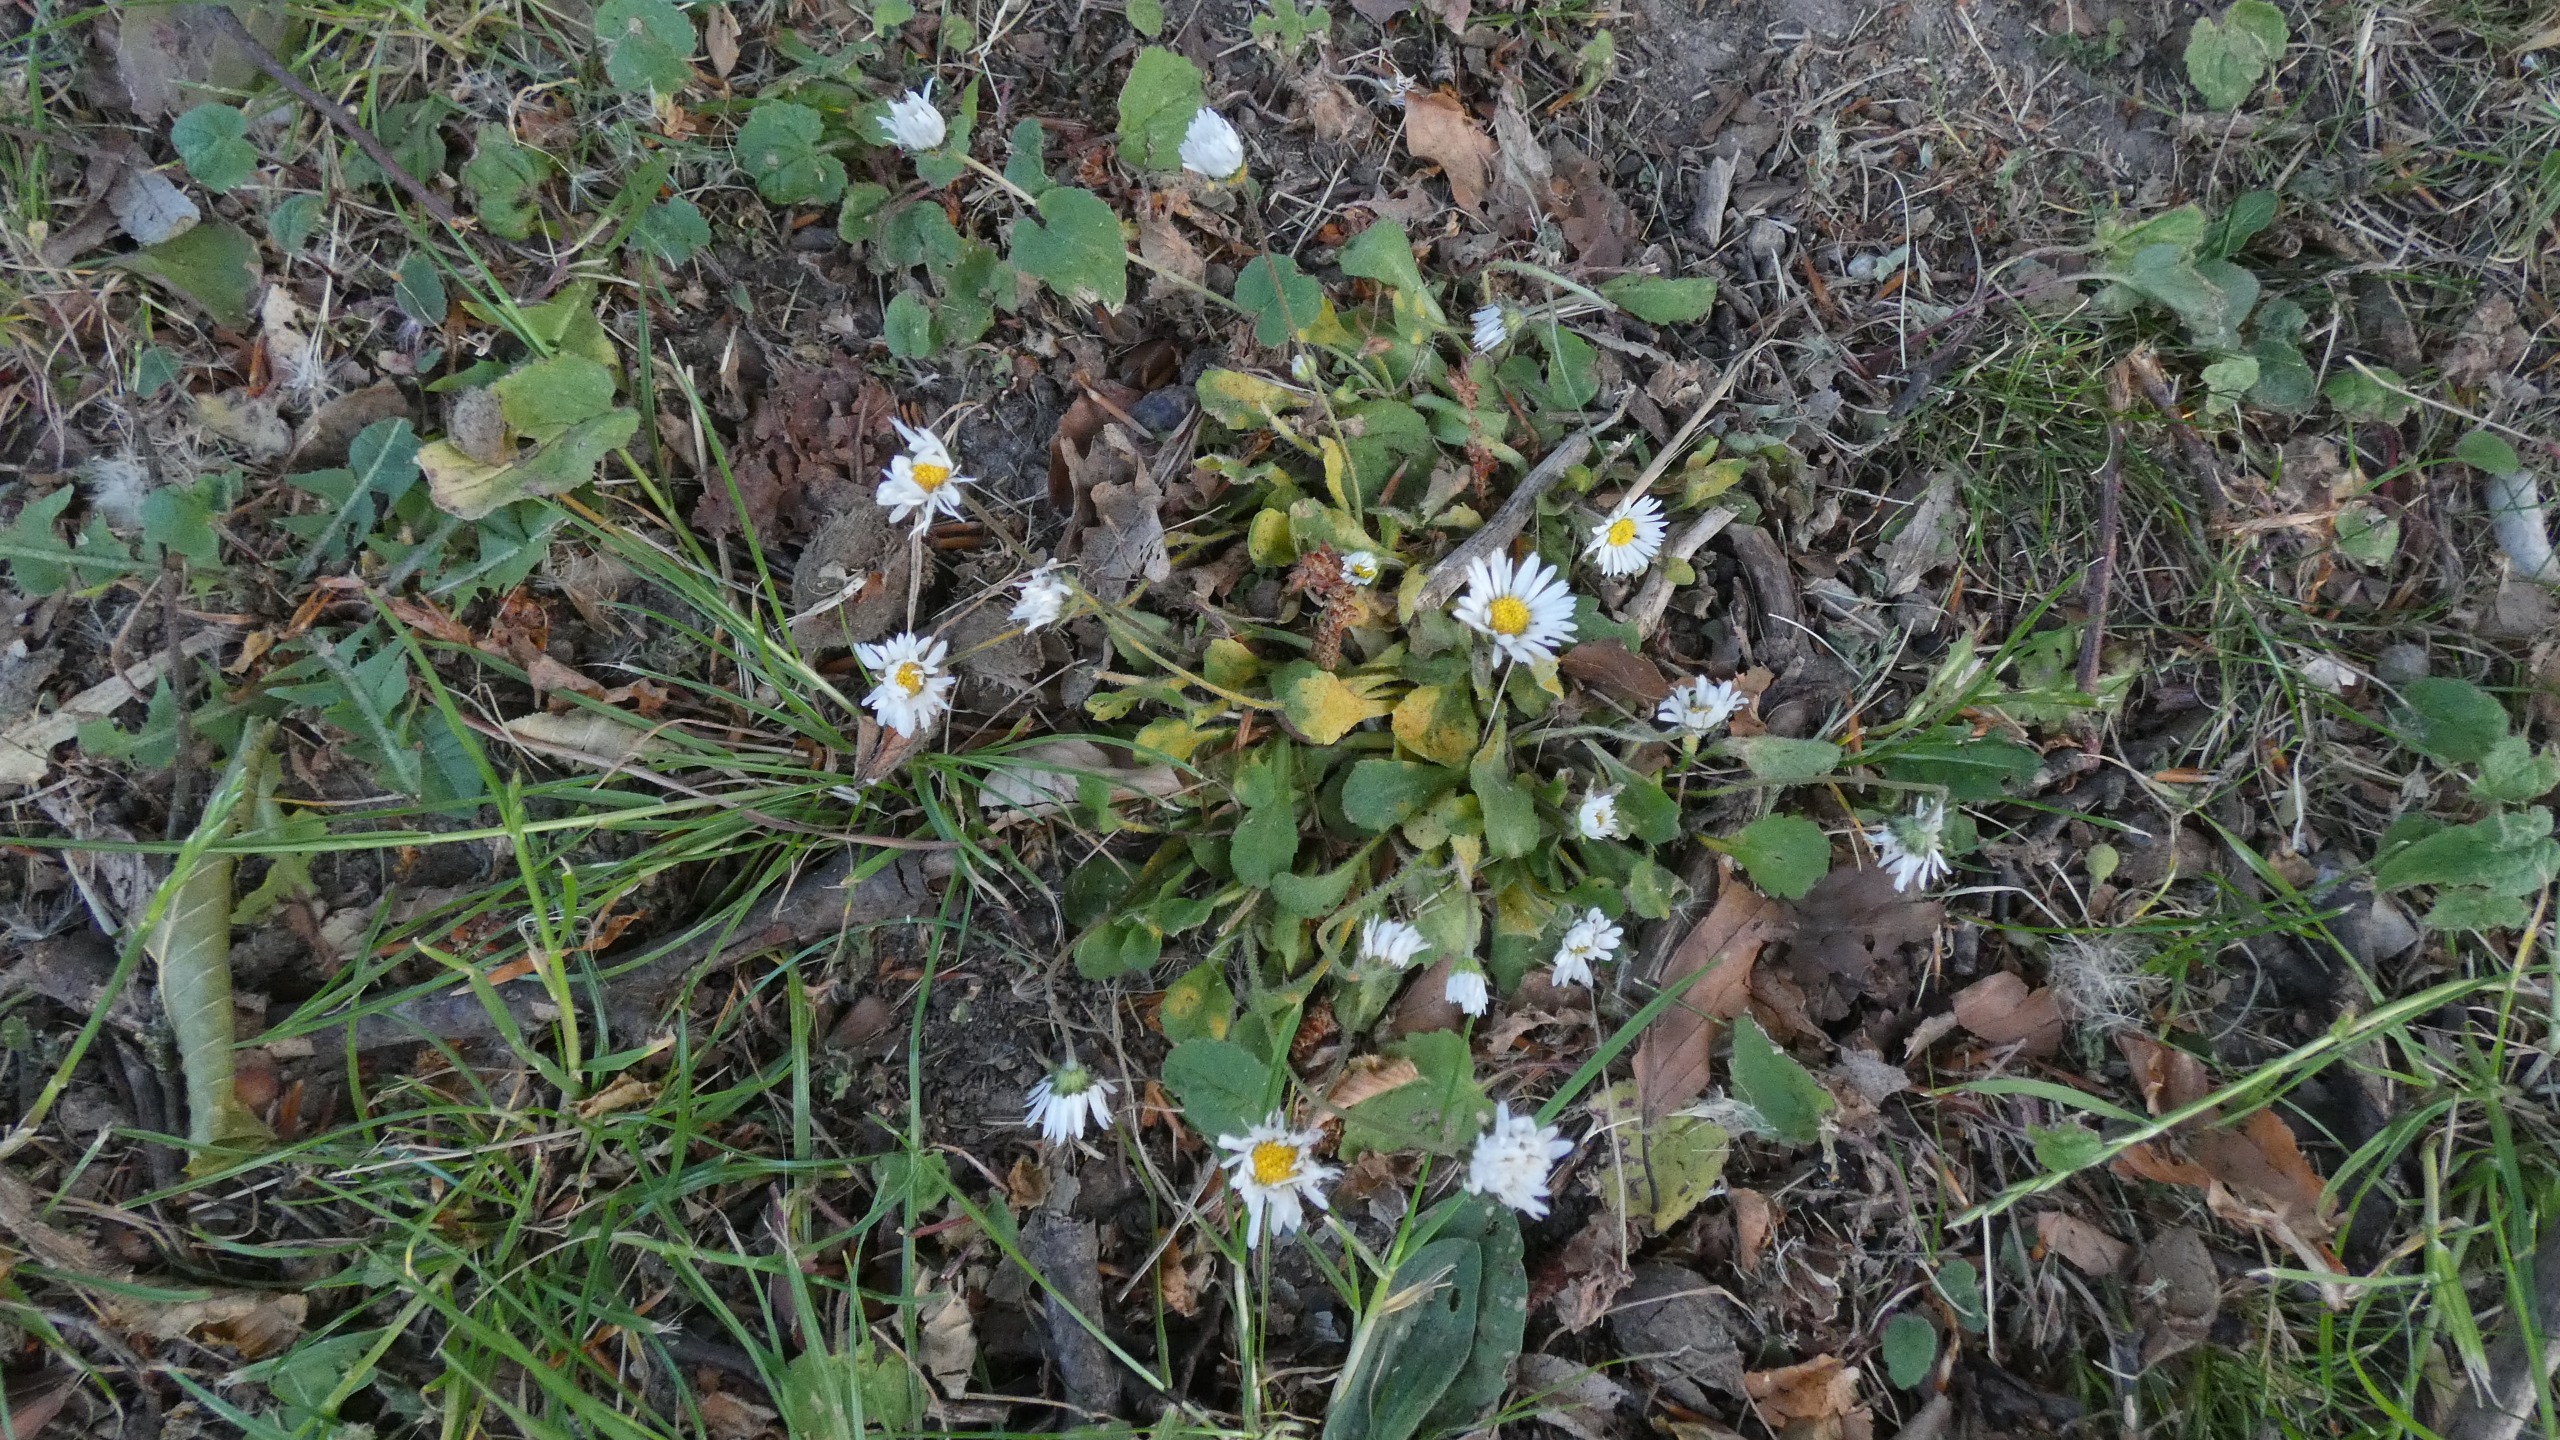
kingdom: Plantae
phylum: Tracheophyta
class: Magnoliopsida
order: Asterales
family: Asteraceae
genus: Bellis
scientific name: Bellis perennis
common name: Tusindfryd
